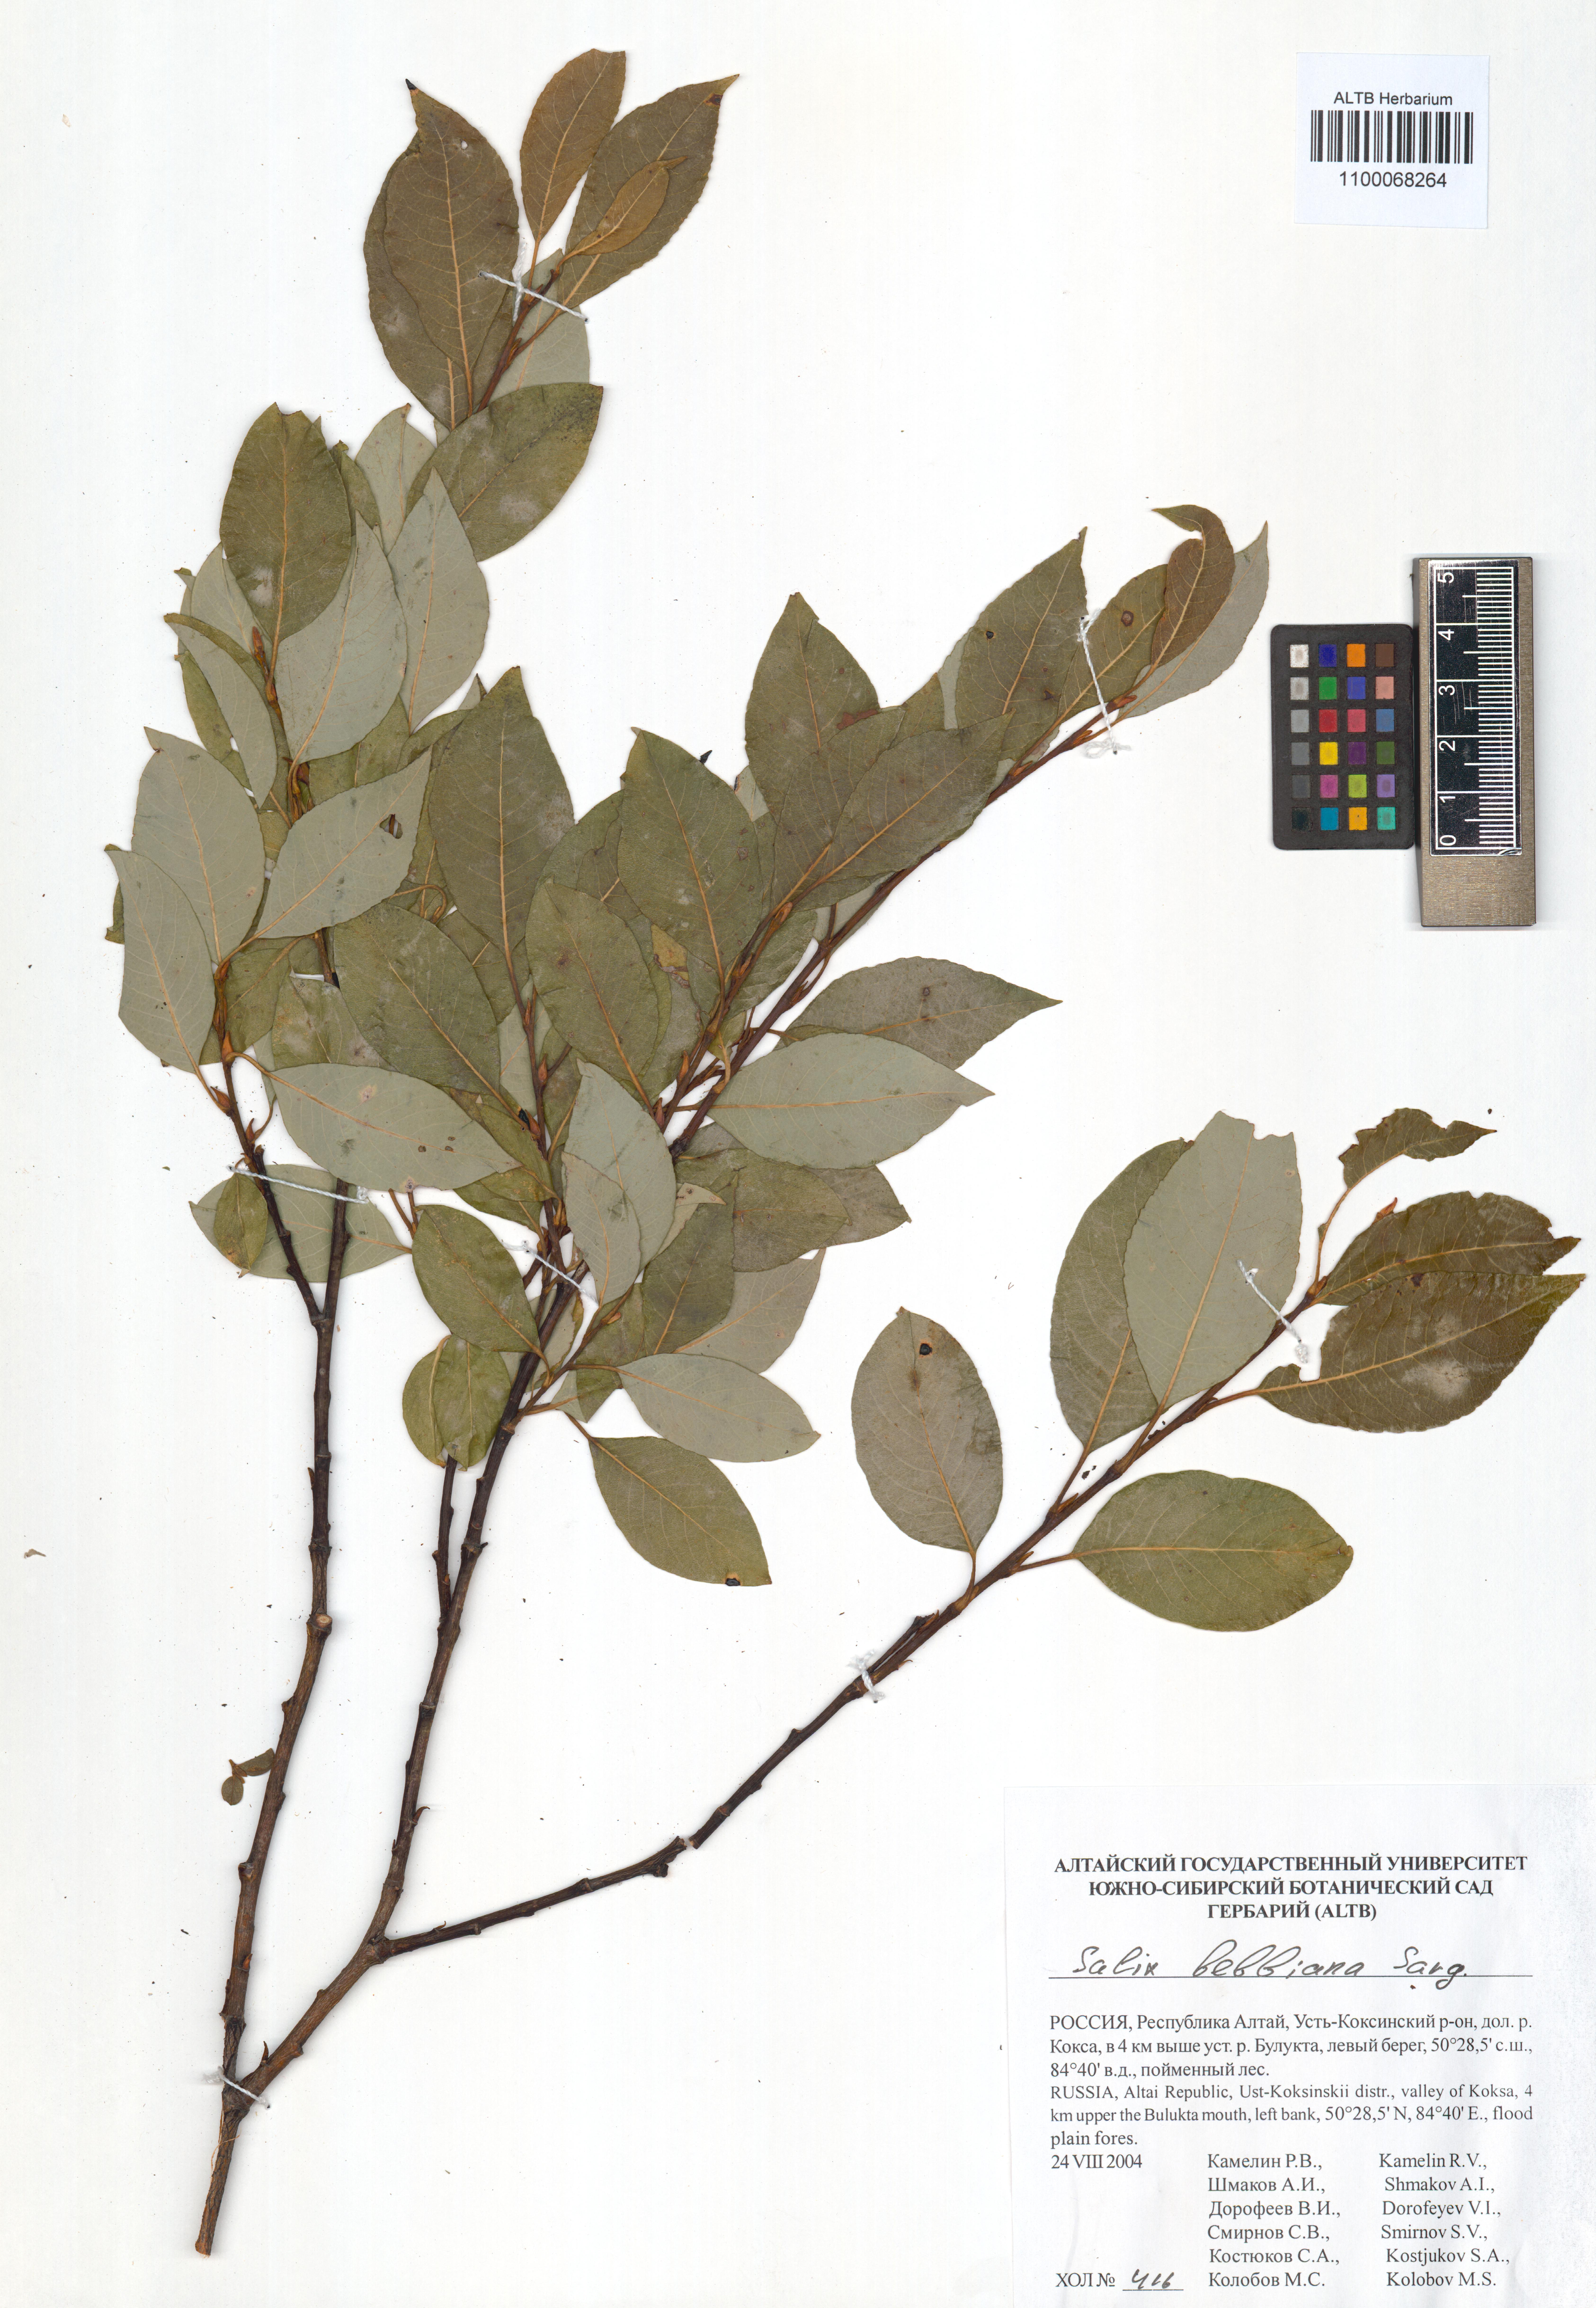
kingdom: Plantae
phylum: Tracheophyta
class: Magnoliopsida
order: Malpighiales
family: Salicaceae
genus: Salix
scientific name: Salix bebbiana
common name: Bebb's willow
